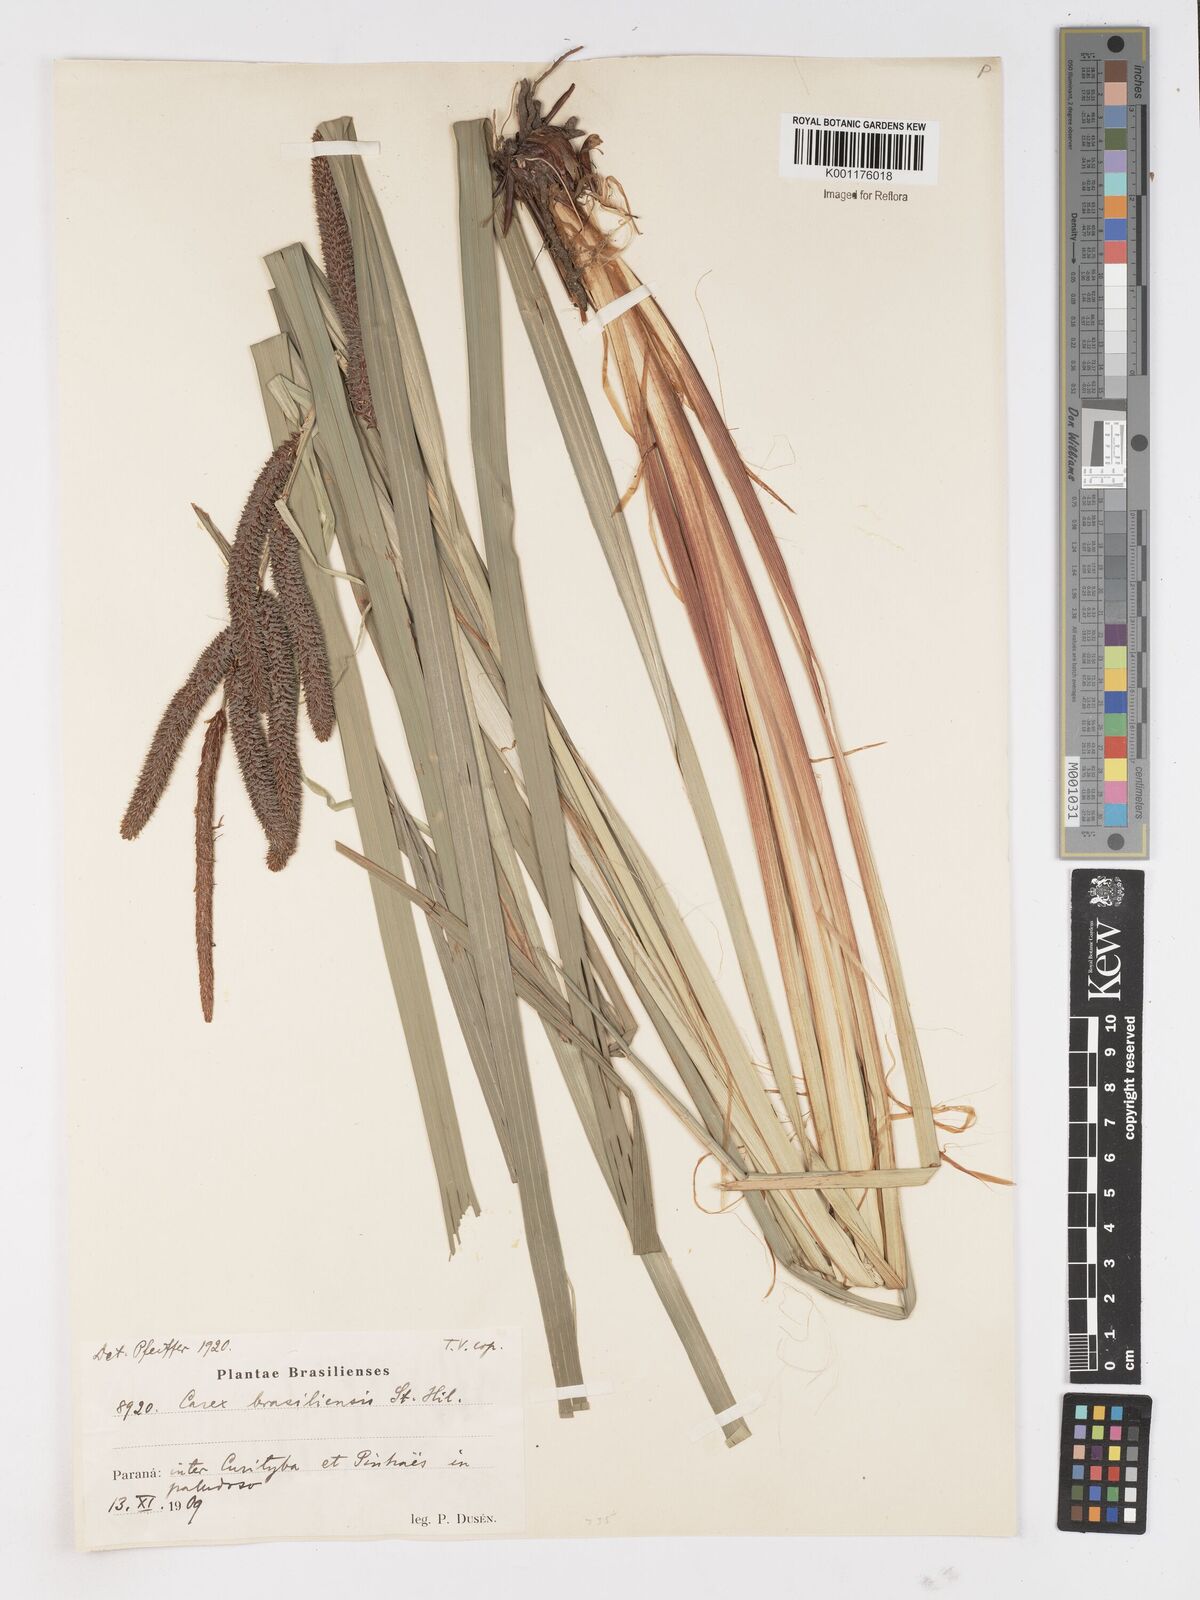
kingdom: Plantae
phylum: Tracheophyta
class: Liliopsida
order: Poales
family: Cyperaceae
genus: Carex
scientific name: Carex brasiliensis
